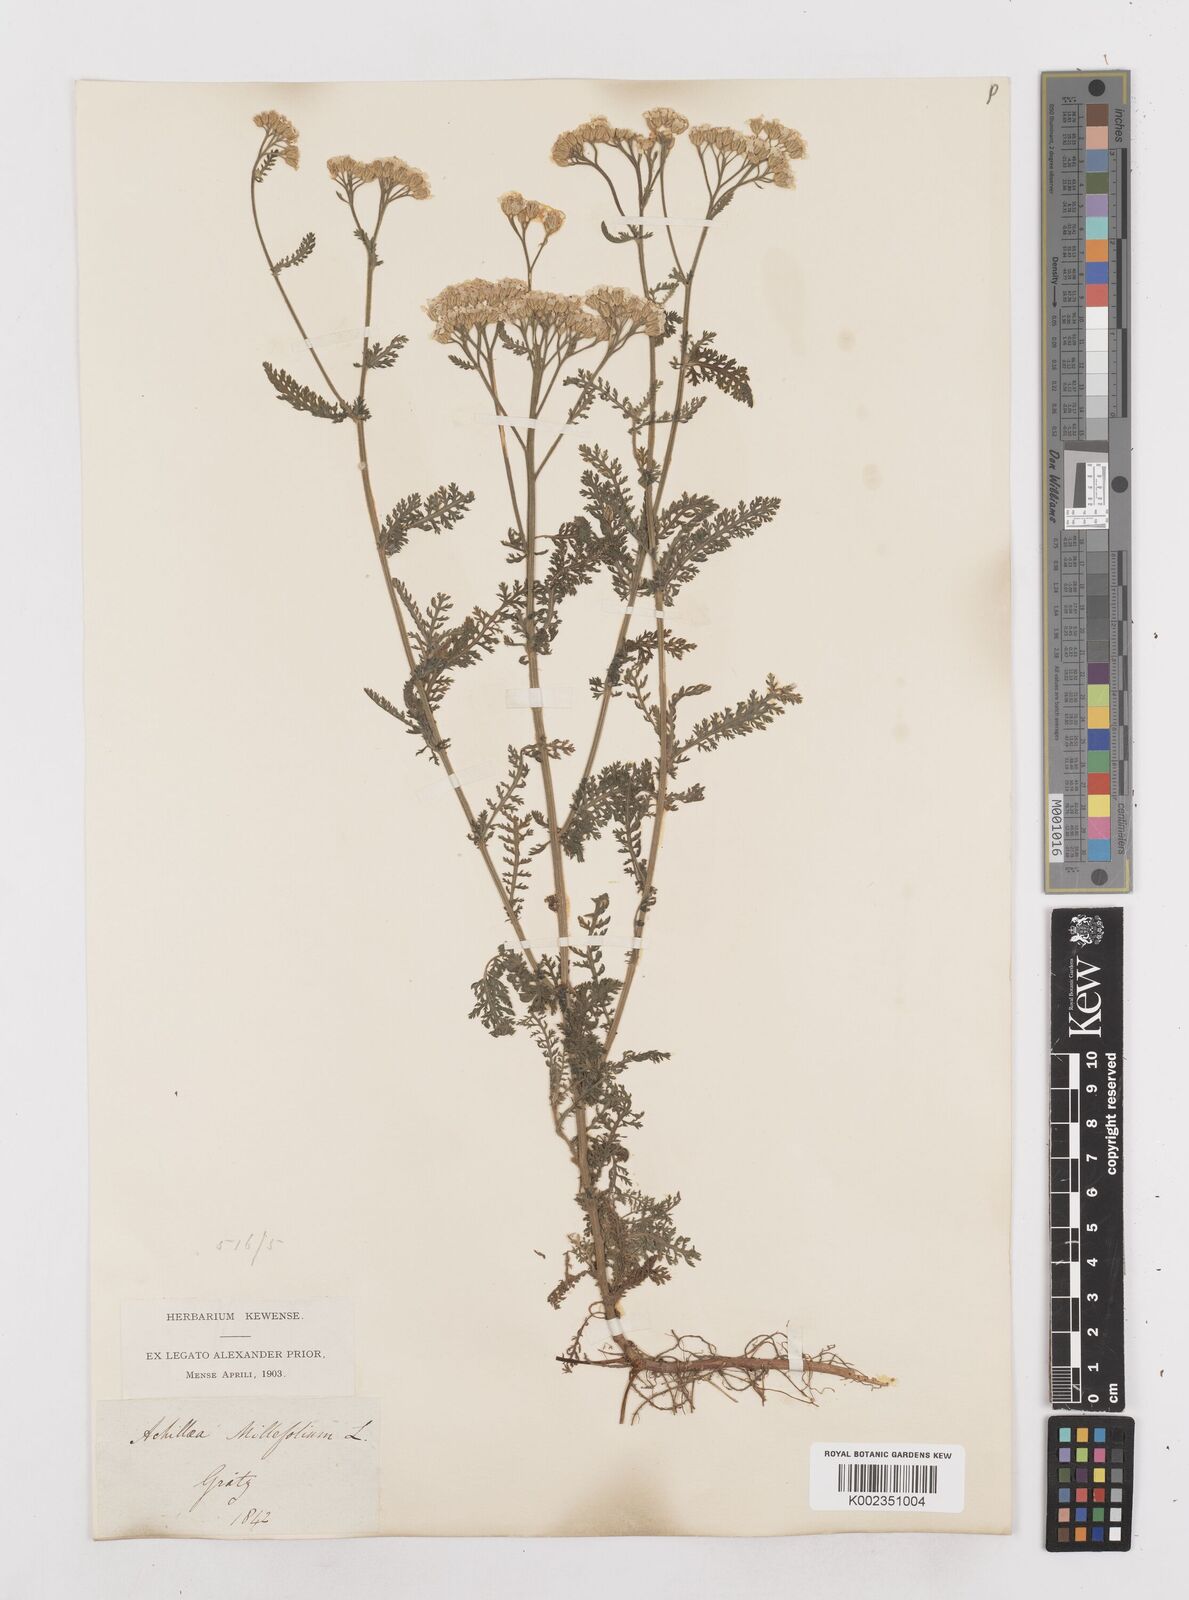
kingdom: Plantae
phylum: Tracheophyta
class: Magnoliopsida
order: Asterales
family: Asteraceae
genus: Achillea
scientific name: Achillea millefolium
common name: Yarrow
